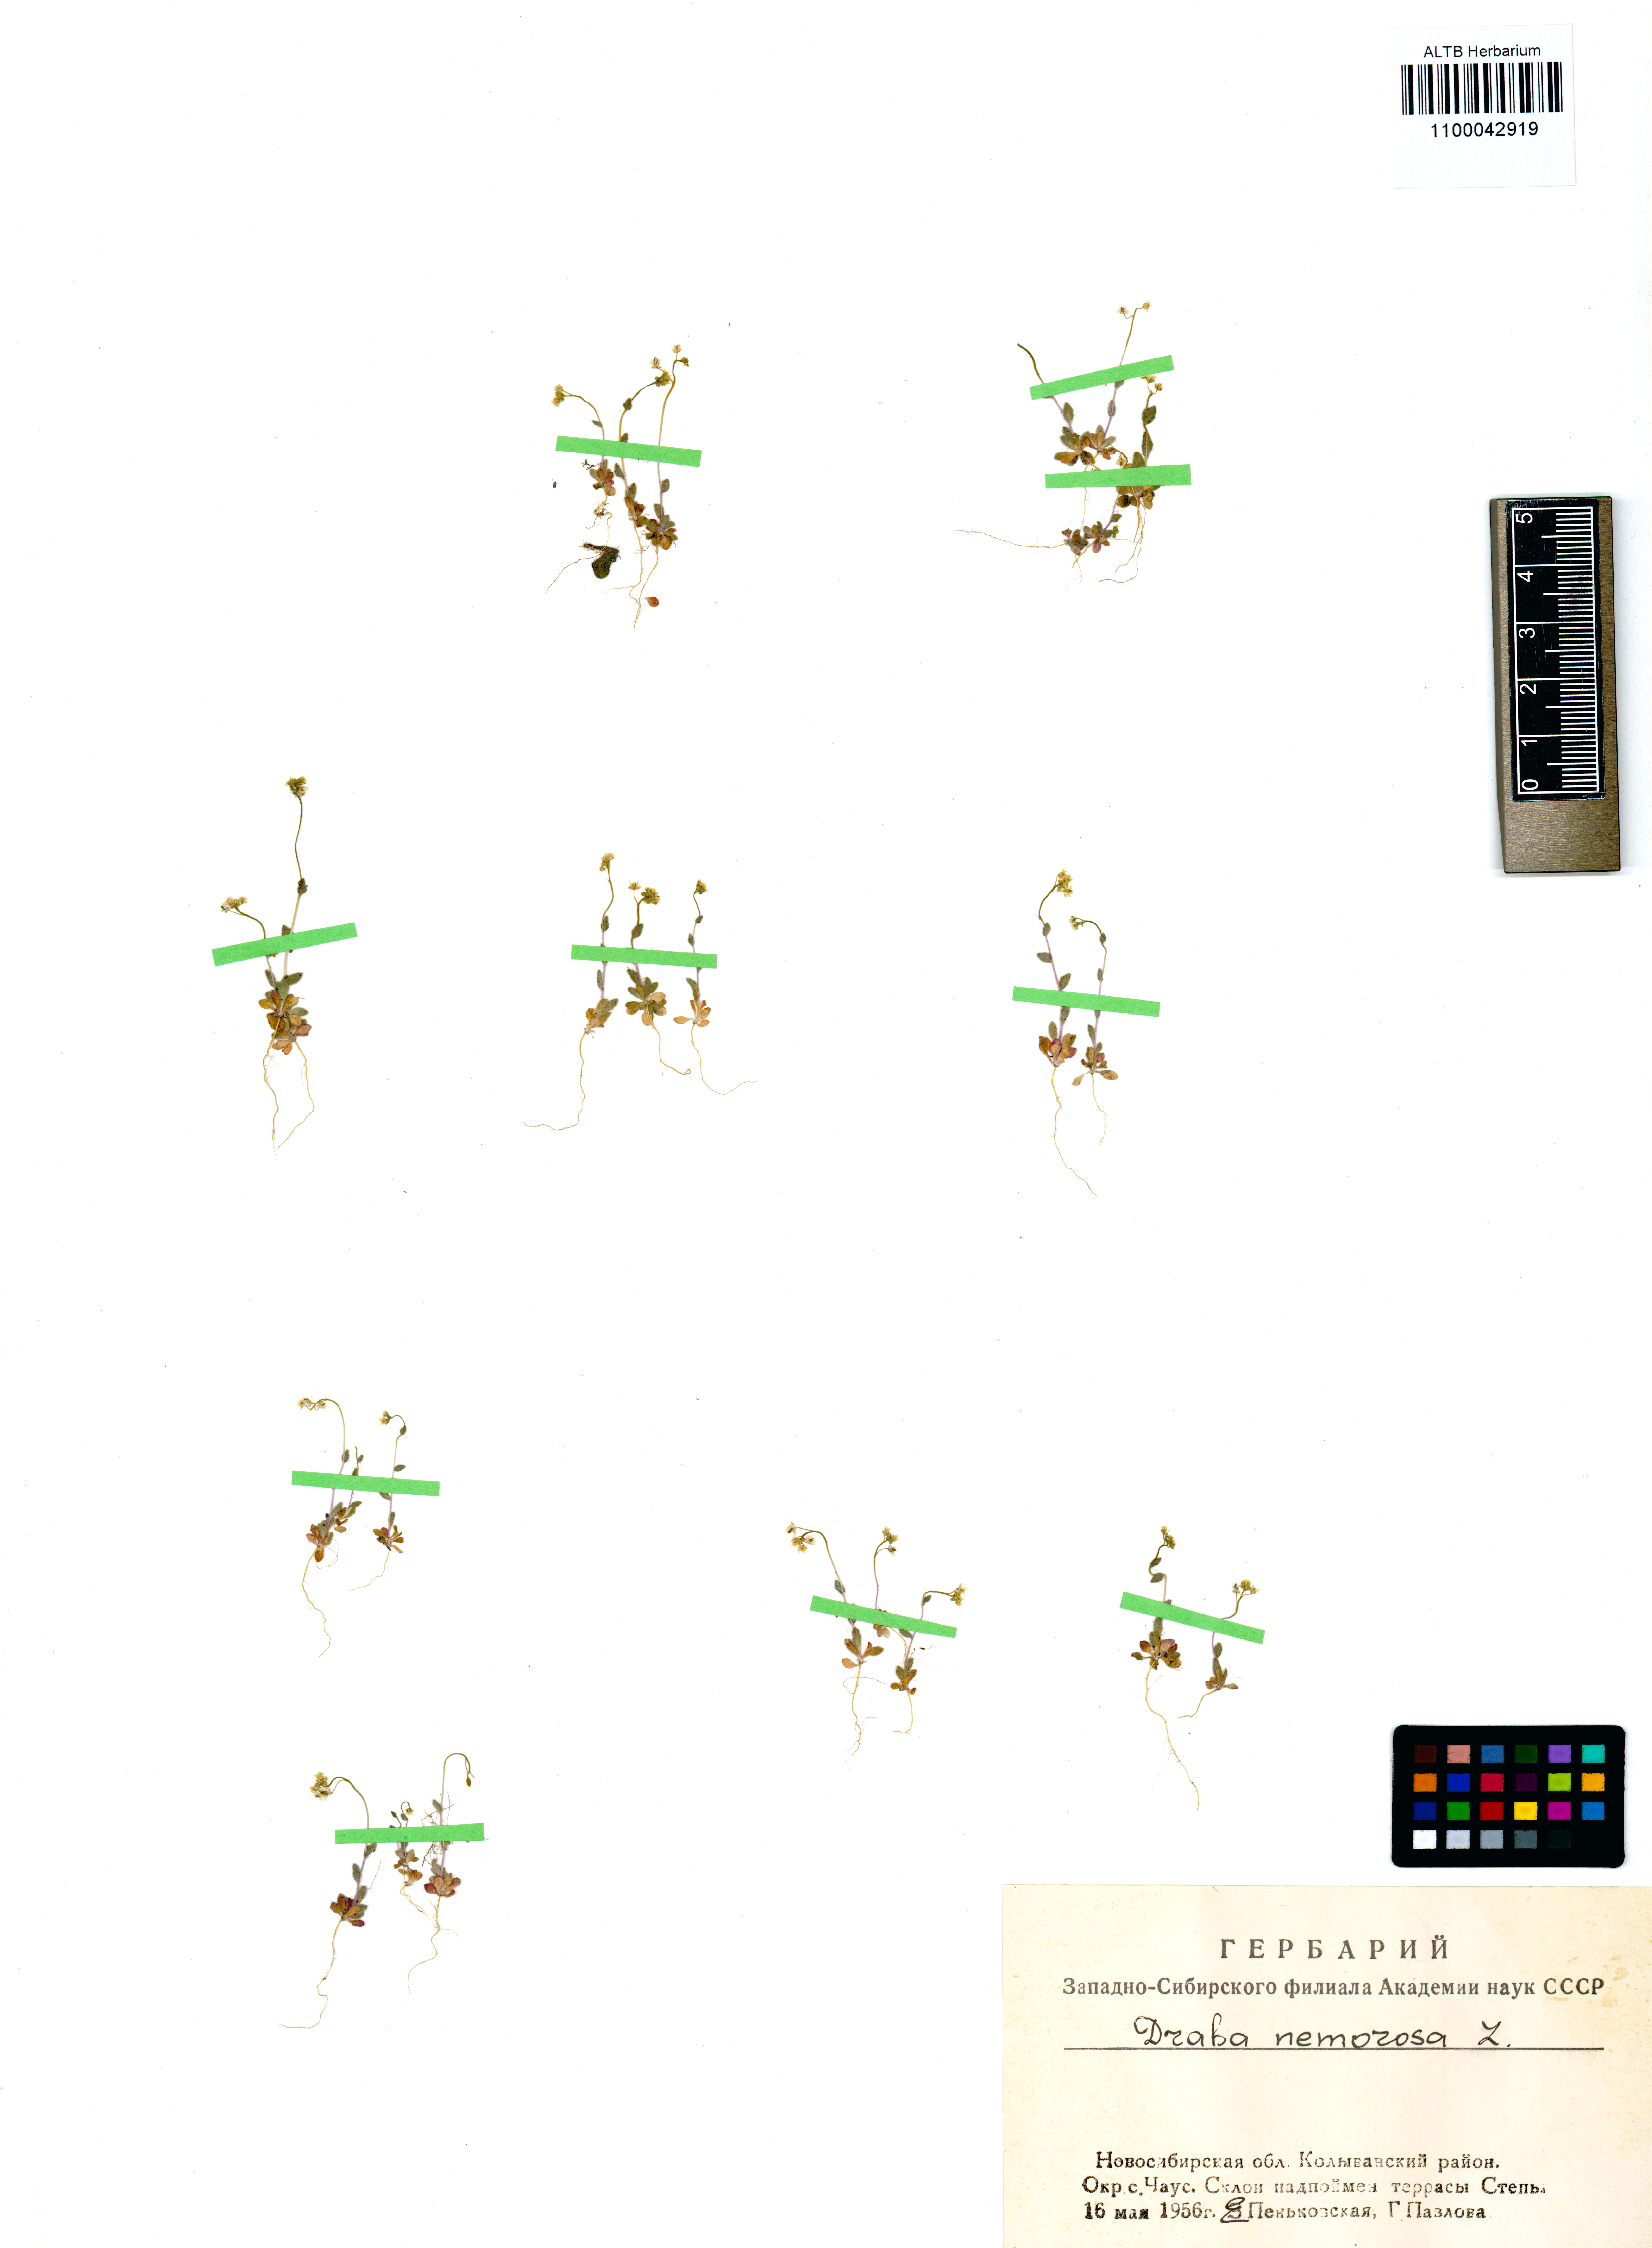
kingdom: Plantae
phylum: Tracheophyta
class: Magnoliopsida
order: Brassicales
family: Brassicaceae
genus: Draba
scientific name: Draba nemorosa
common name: Wood whitlow-grass
